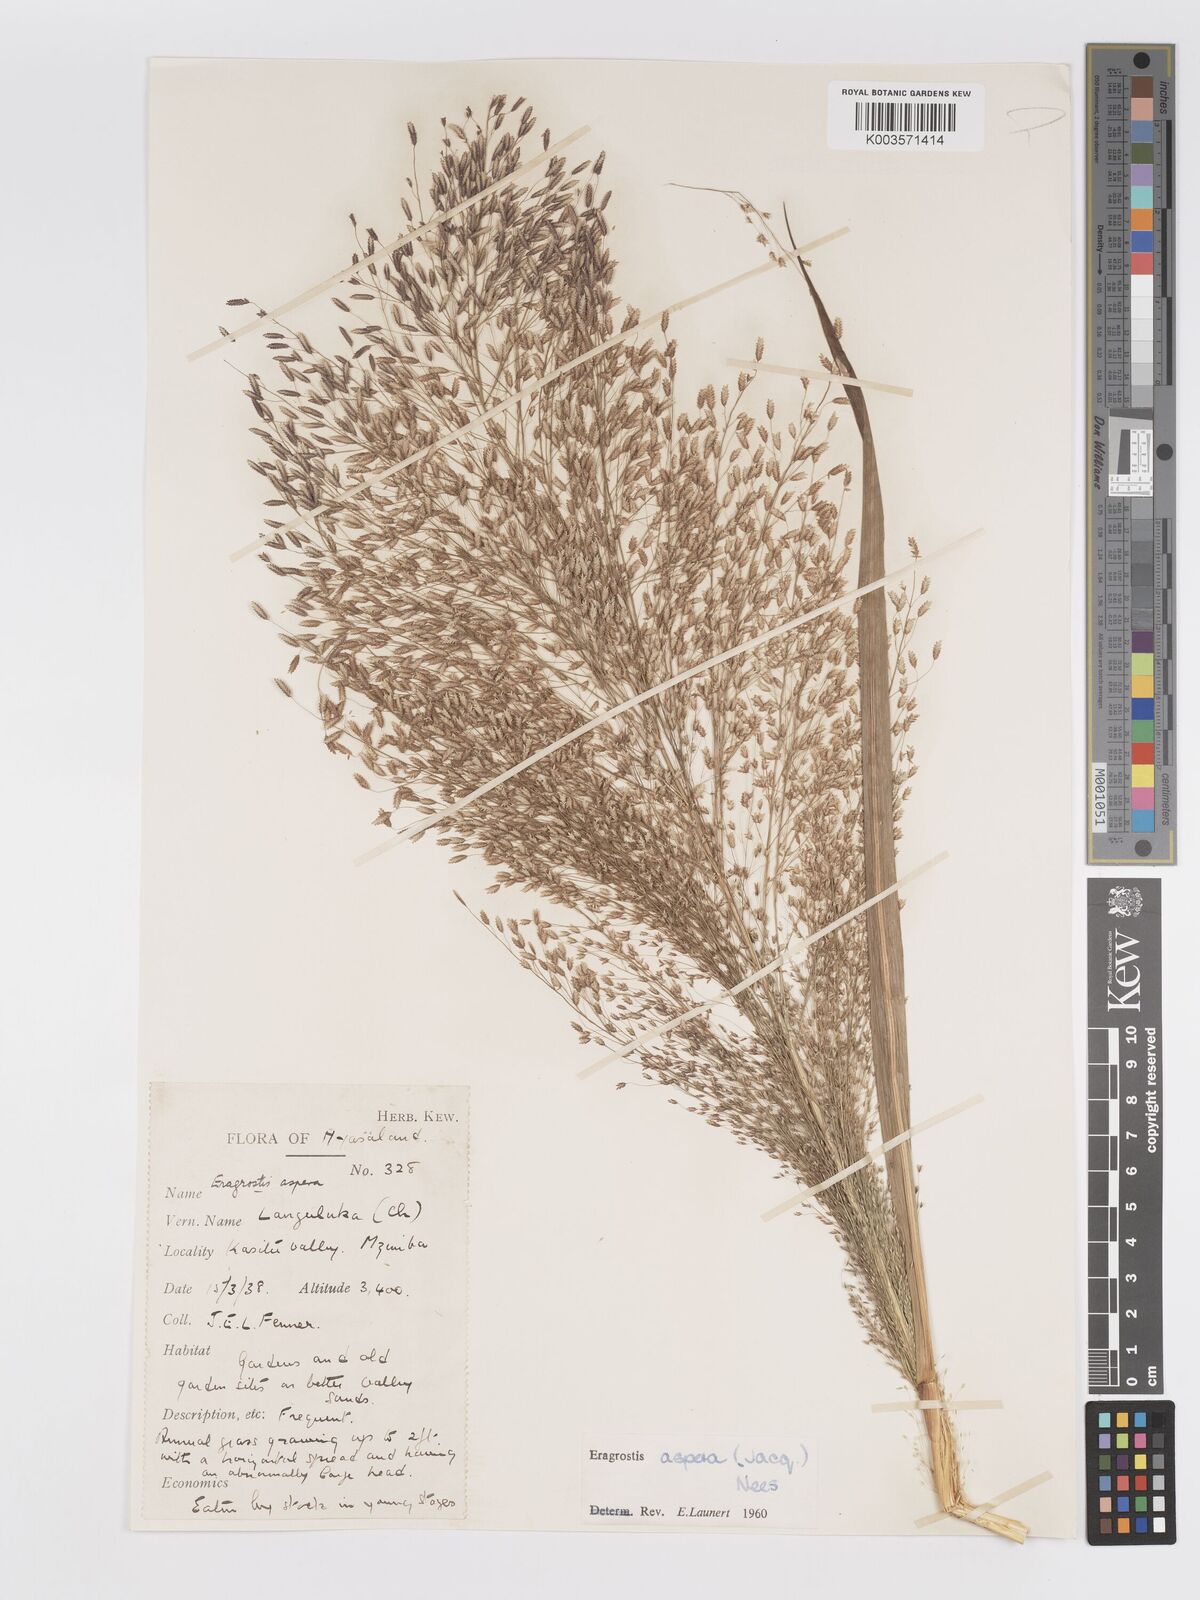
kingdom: Plantae
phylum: Tracheophyta
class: Liliopsida
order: Poales
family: Poaceae
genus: Eragrostis
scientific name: Eragrostis aspera
